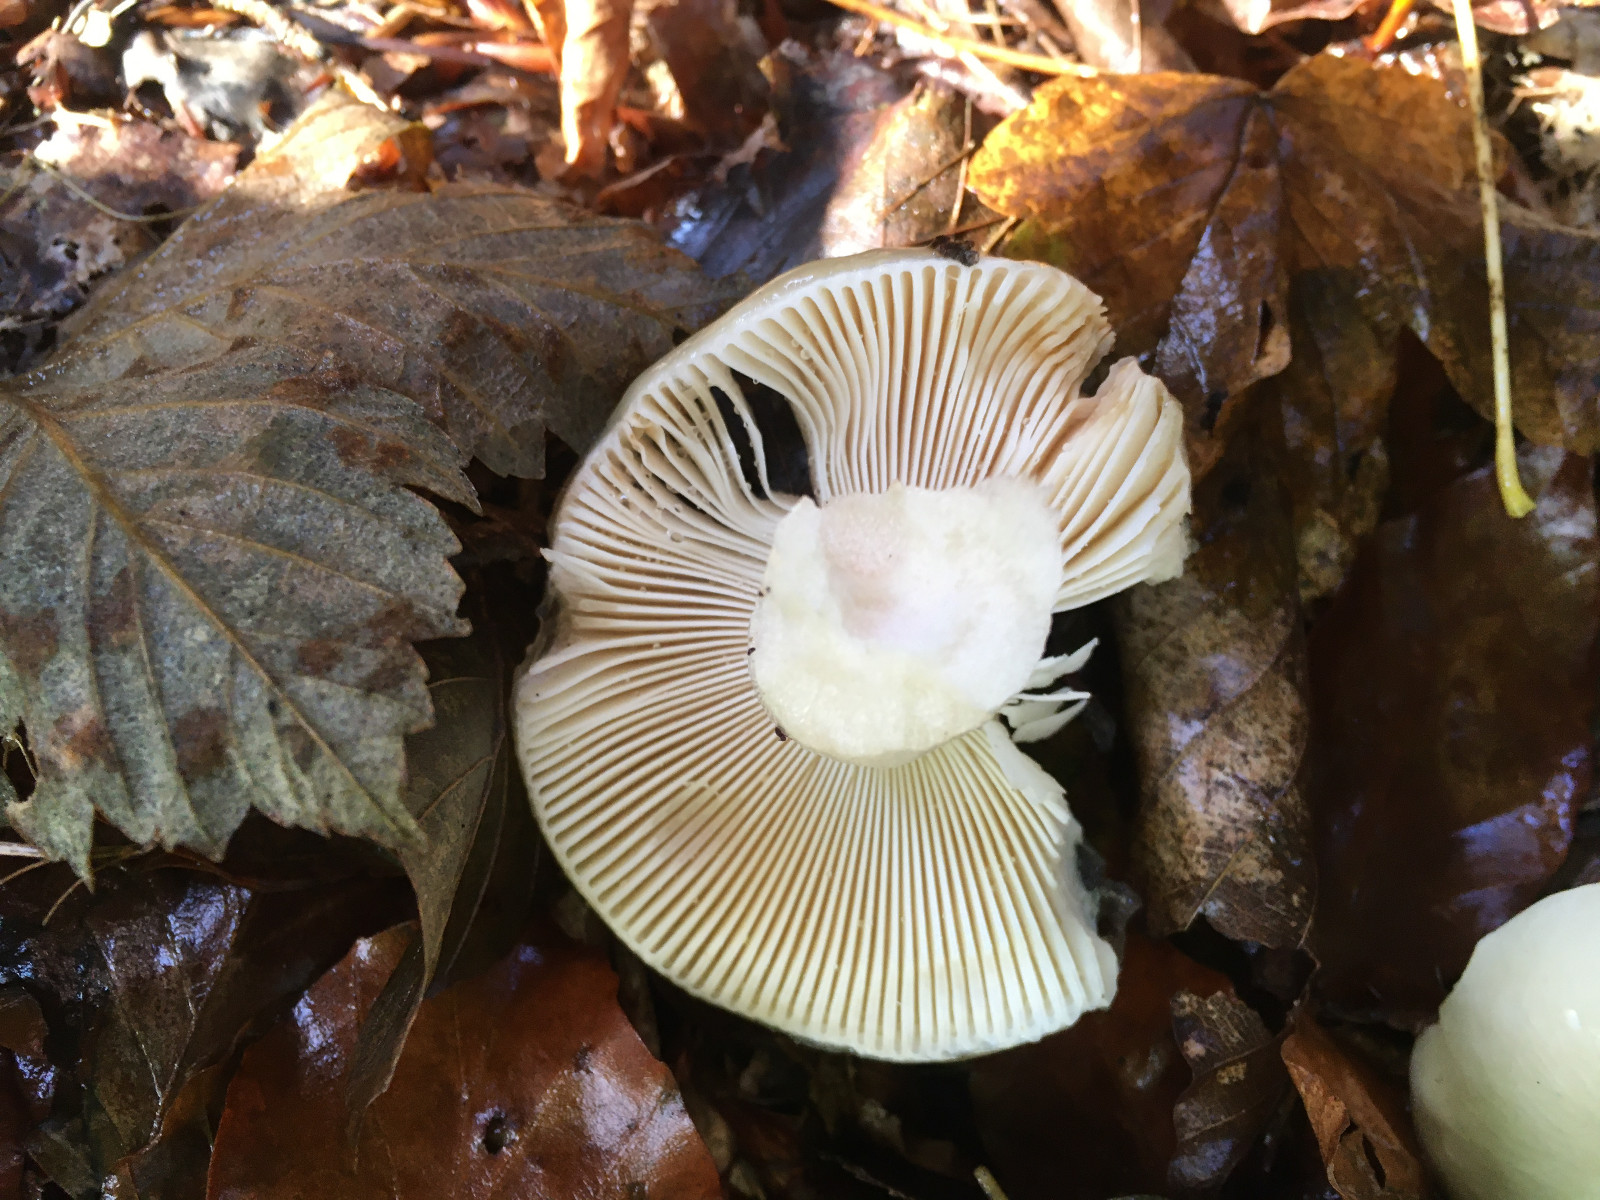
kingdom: Fungi
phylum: Basidiomycota
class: Agaricomycetes
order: Russulales
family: Russulaceae
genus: Russula
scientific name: Russula
